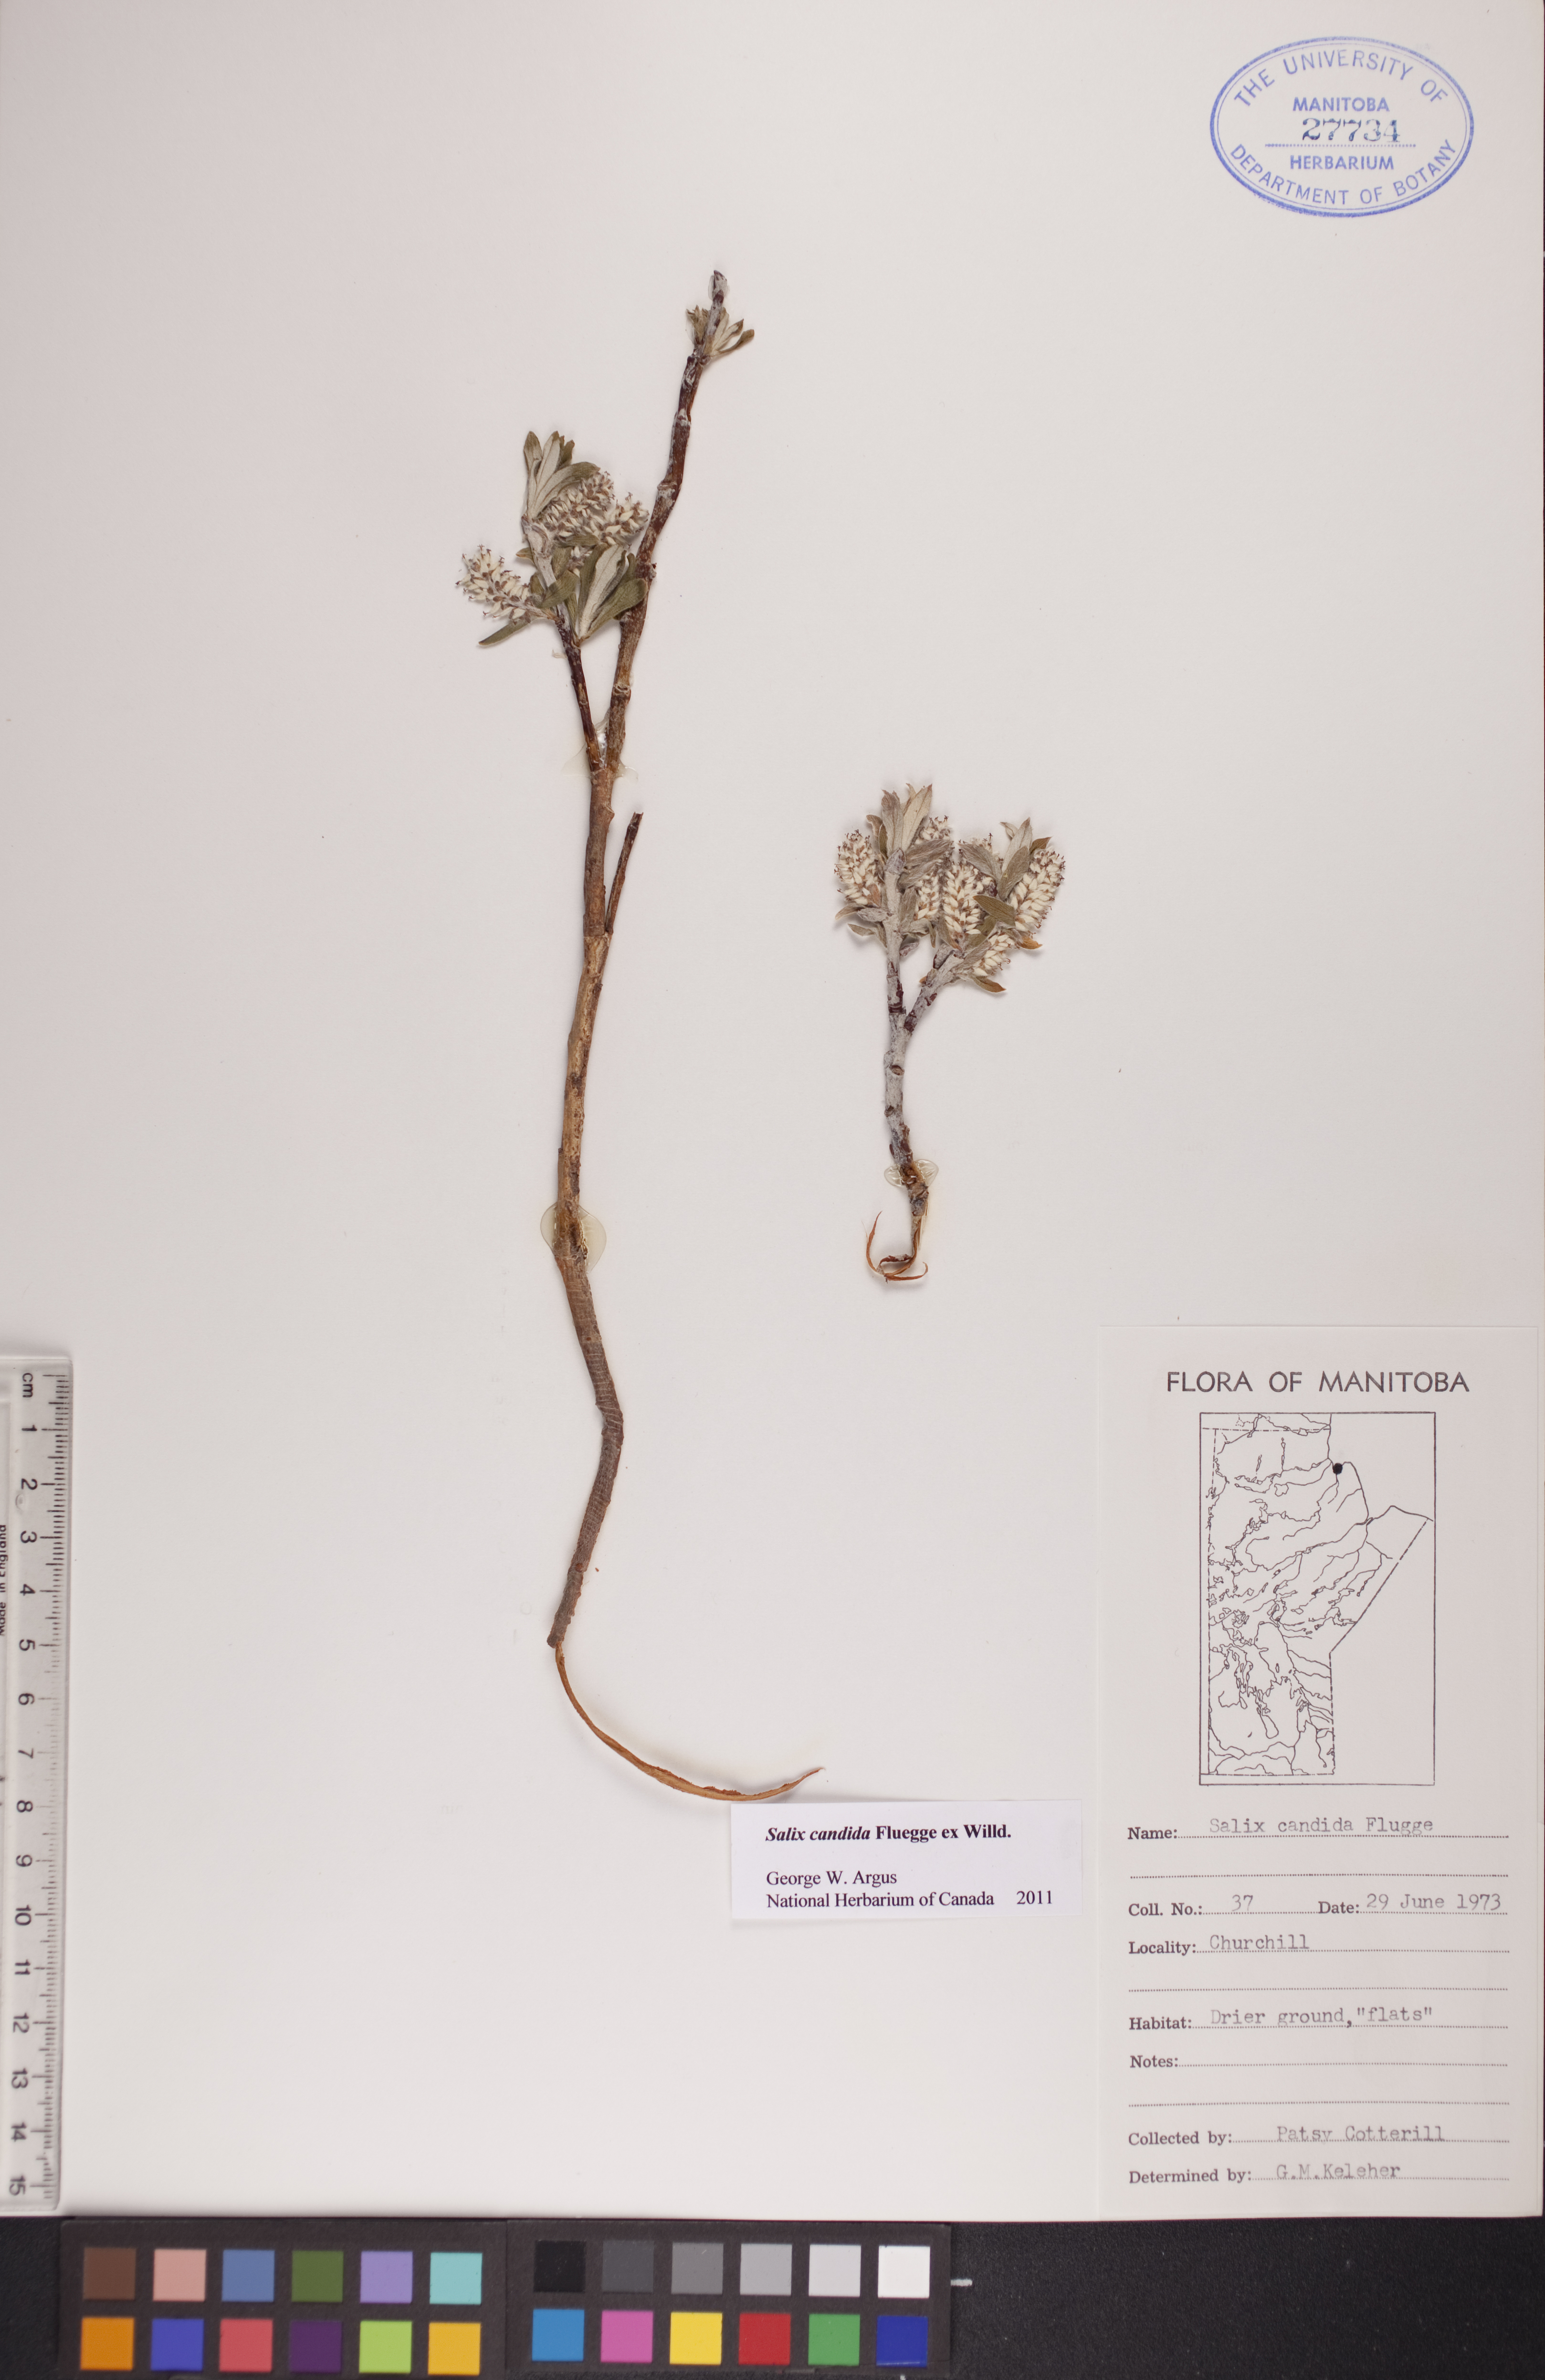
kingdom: Plantae
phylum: Tracheophyta
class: Magnoliopsida
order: Malpighiales
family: Salicaceae
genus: Salix
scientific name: Salix candida
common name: Hoary willow
